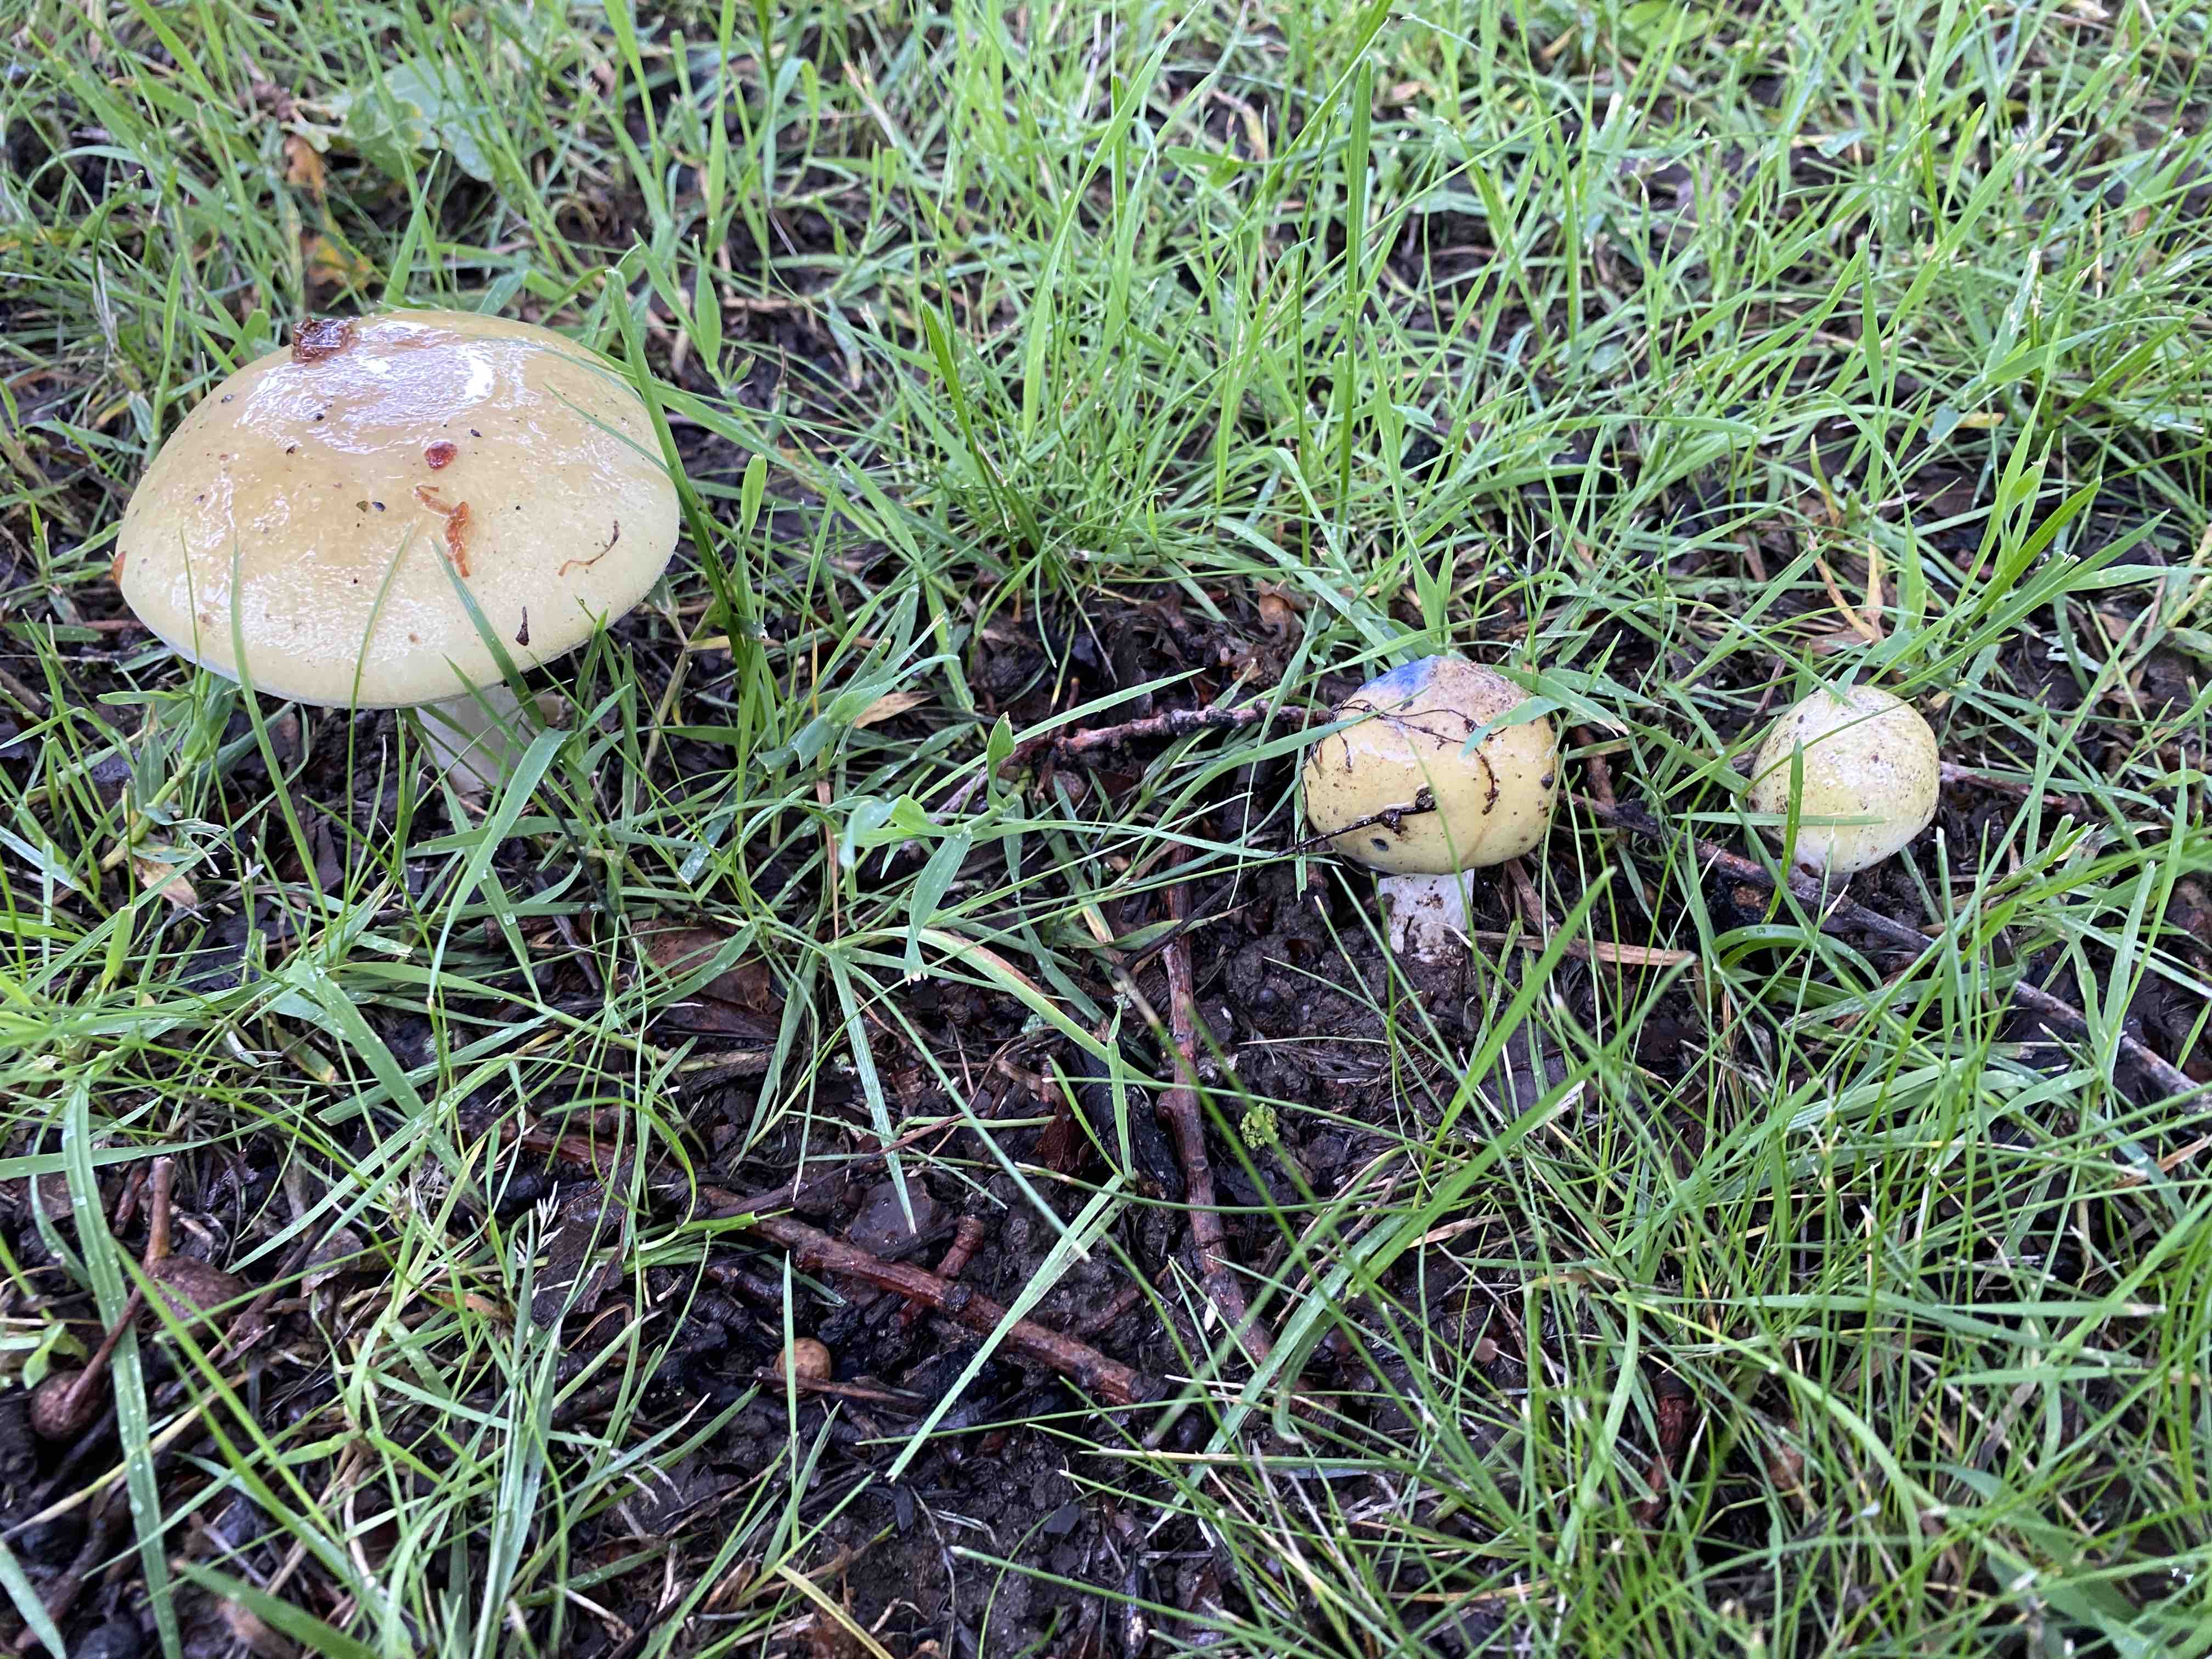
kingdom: Fungi
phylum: Basidiomycota
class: Agaricomycetes
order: Agaricales
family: Amanitaceae
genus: Amanita
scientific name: Amanita phalloides
